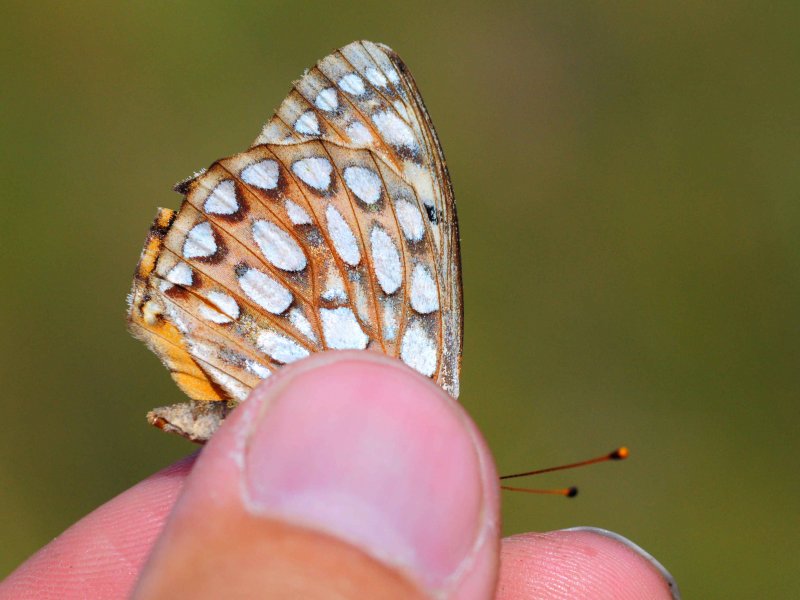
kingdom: Animalia
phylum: Arthropoda
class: Insecta
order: Lepidoptera
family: Nymphalidae
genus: Speyeria
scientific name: Speyeria callippe
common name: Callippe Fritillary
